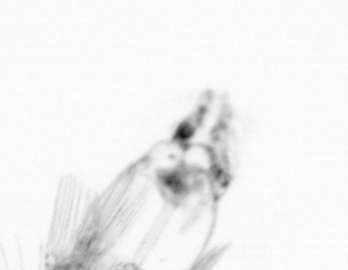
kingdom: Animalia
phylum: Arthropoda
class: Copepoda
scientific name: Copepoda
